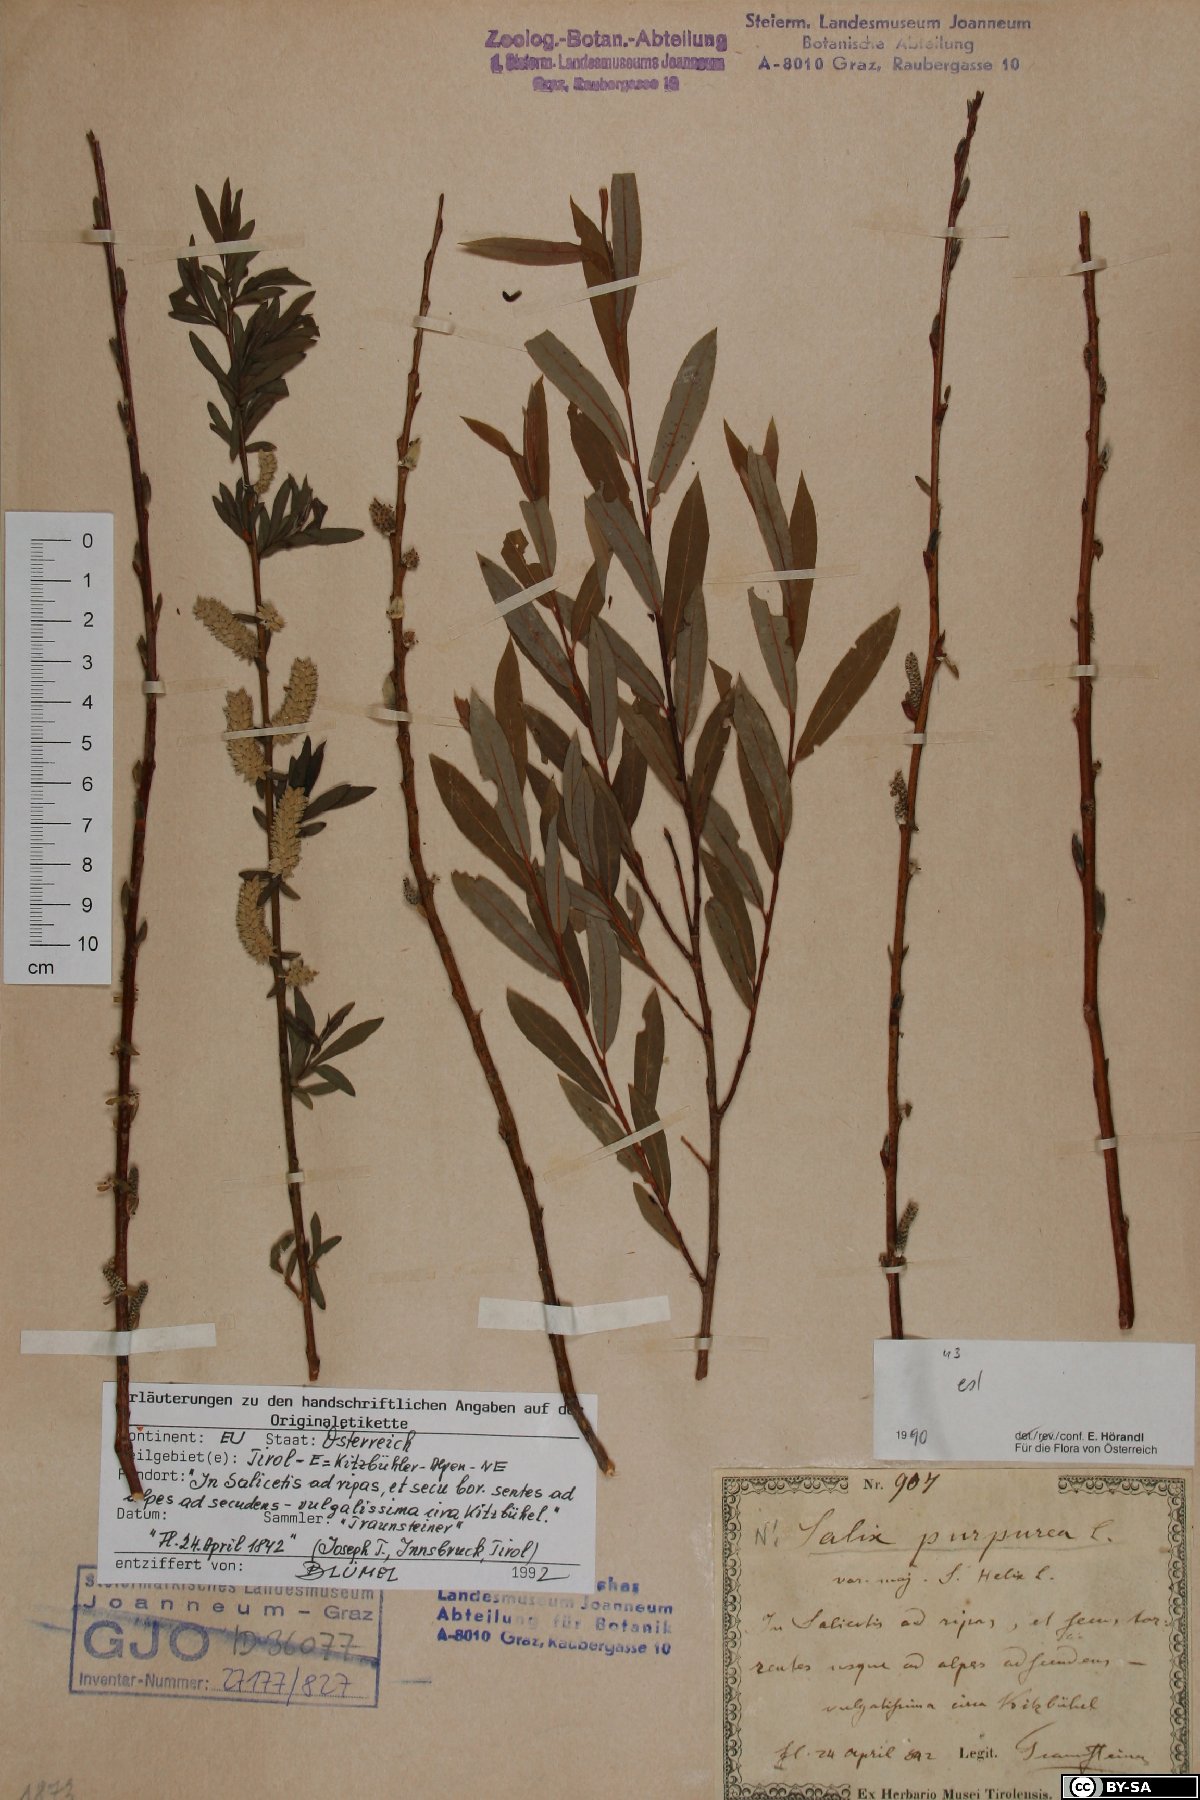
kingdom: Plantae
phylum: Tracheophyta
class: Magnoliopsida
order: Malpighiales
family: Salicaceae
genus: Salix
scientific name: Salix purpurea
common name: Purple willow
